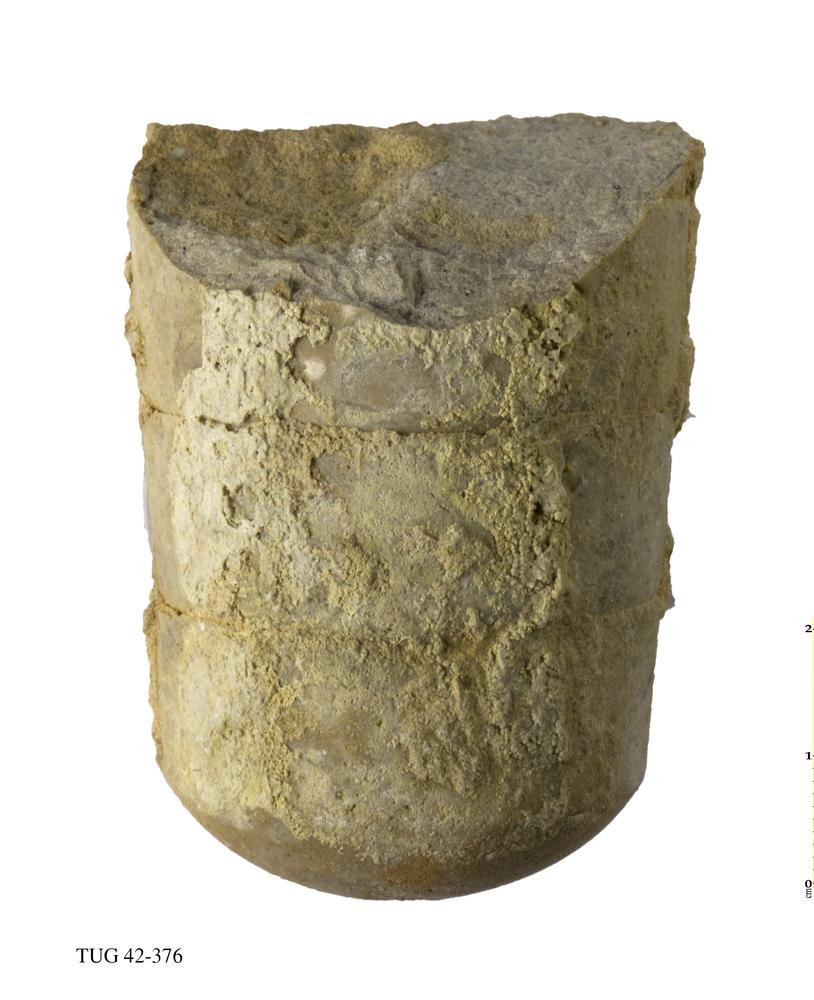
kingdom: Animalia
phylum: Mollusca
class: Cephalopoda
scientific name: Cephalopoda
